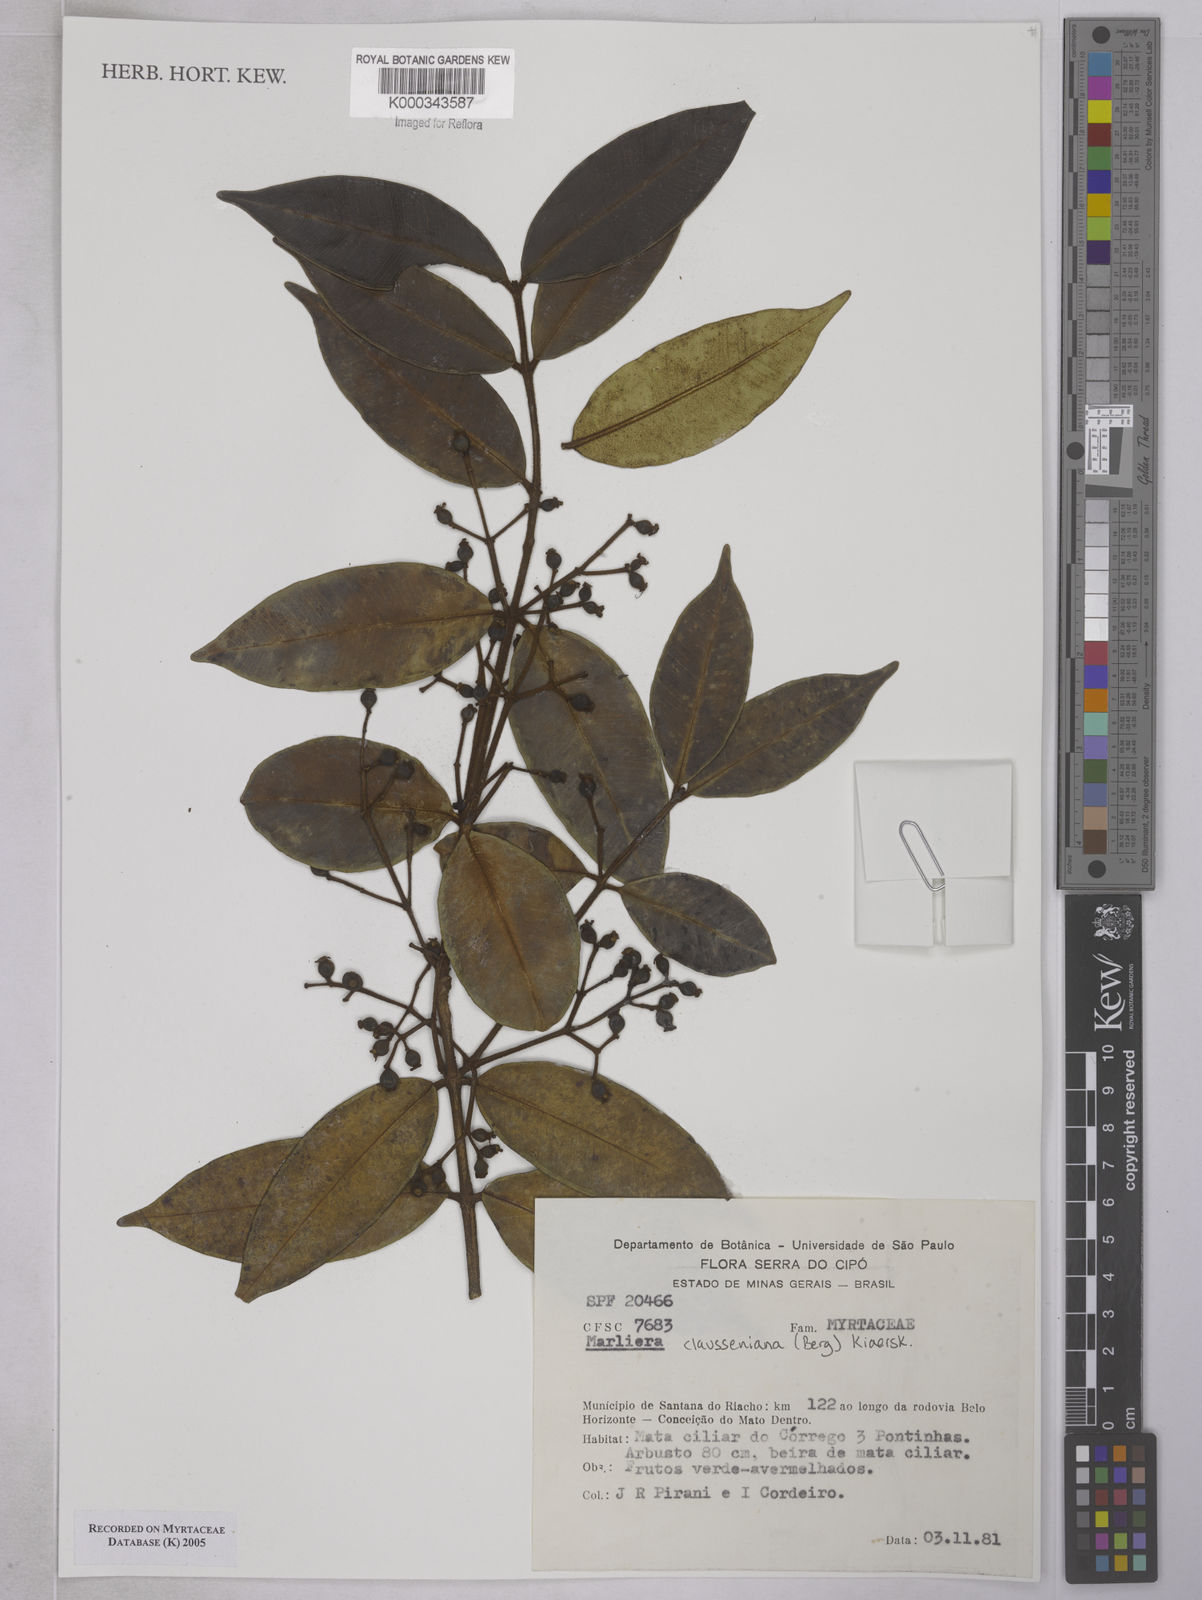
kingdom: Plantae
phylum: Tracheophyta
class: Magnoliopsida
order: Myrtales
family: Myrtaceae
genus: Marlierea
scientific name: Marlierea clausseniana
